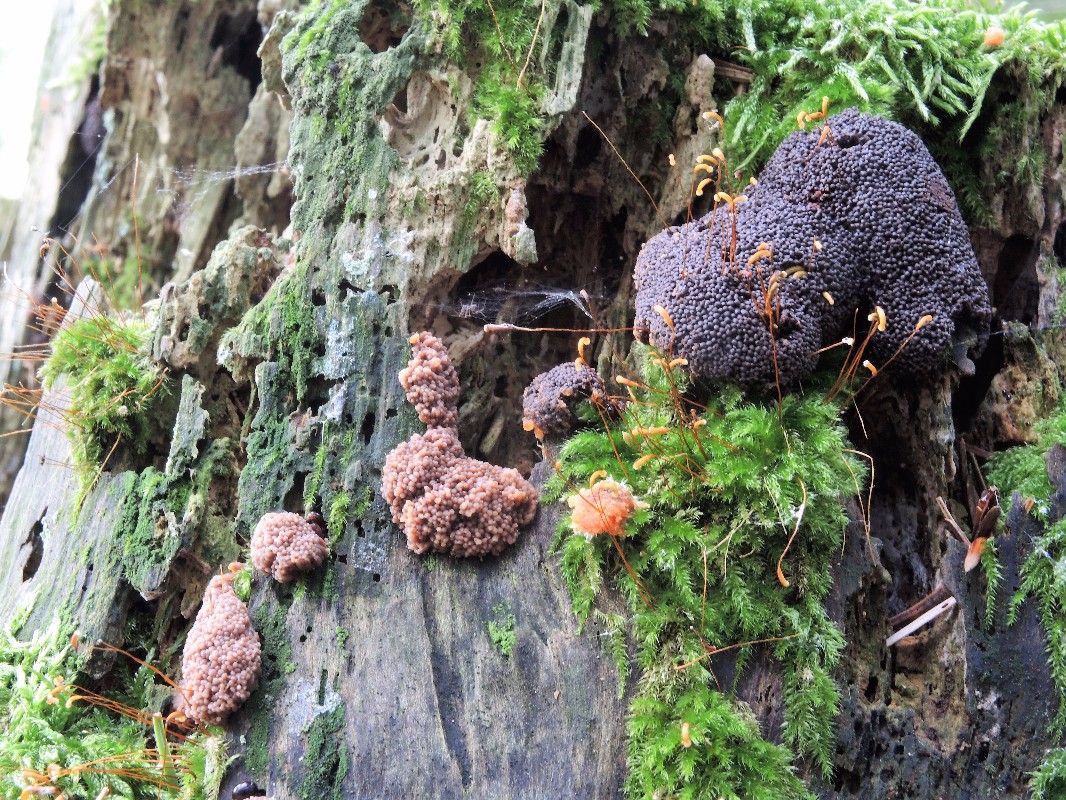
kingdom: Protozoa
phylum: Mycetozoa
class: Myxomycetes
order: Cribrariales
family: Tubiferaceae
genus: Tubifera
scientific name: Tubifera ferruginosa
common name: kanel-støvrør
